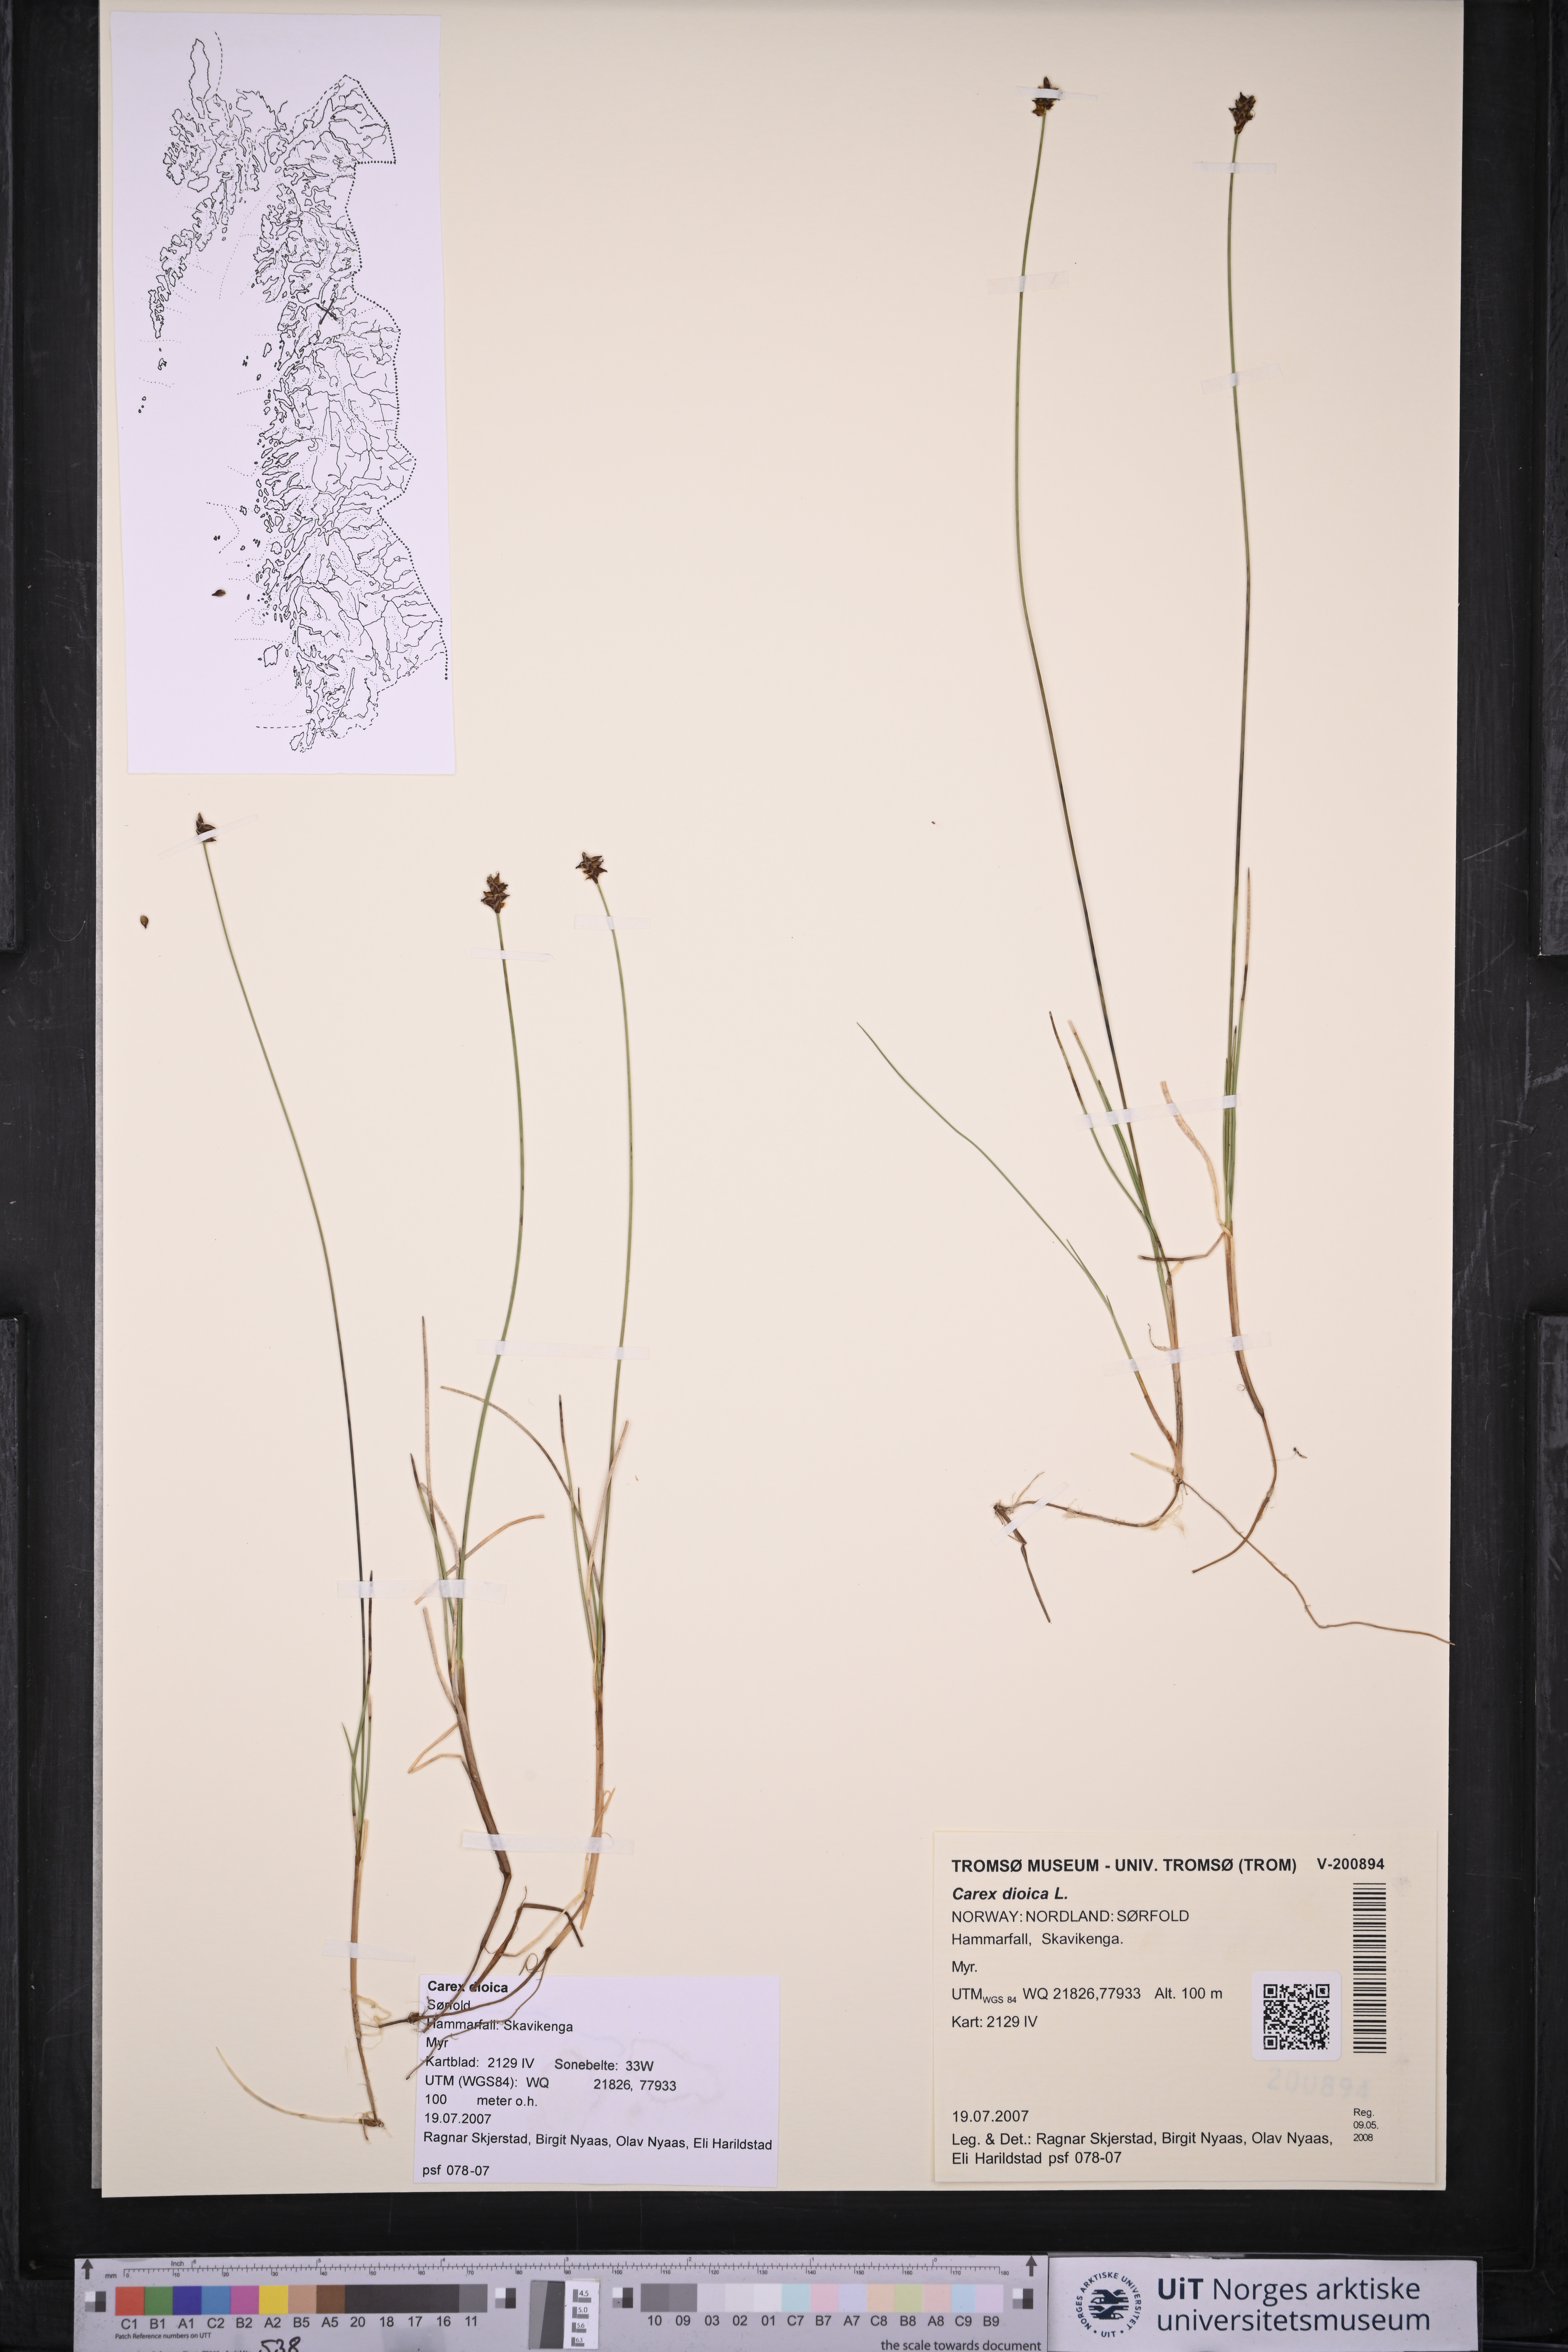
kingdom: Plantae
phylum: Tracheophyta
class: Liliopsida
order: Poales
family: Cyperaceae
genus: Carex
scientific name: Carex dioica
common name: Dioecious sedge
